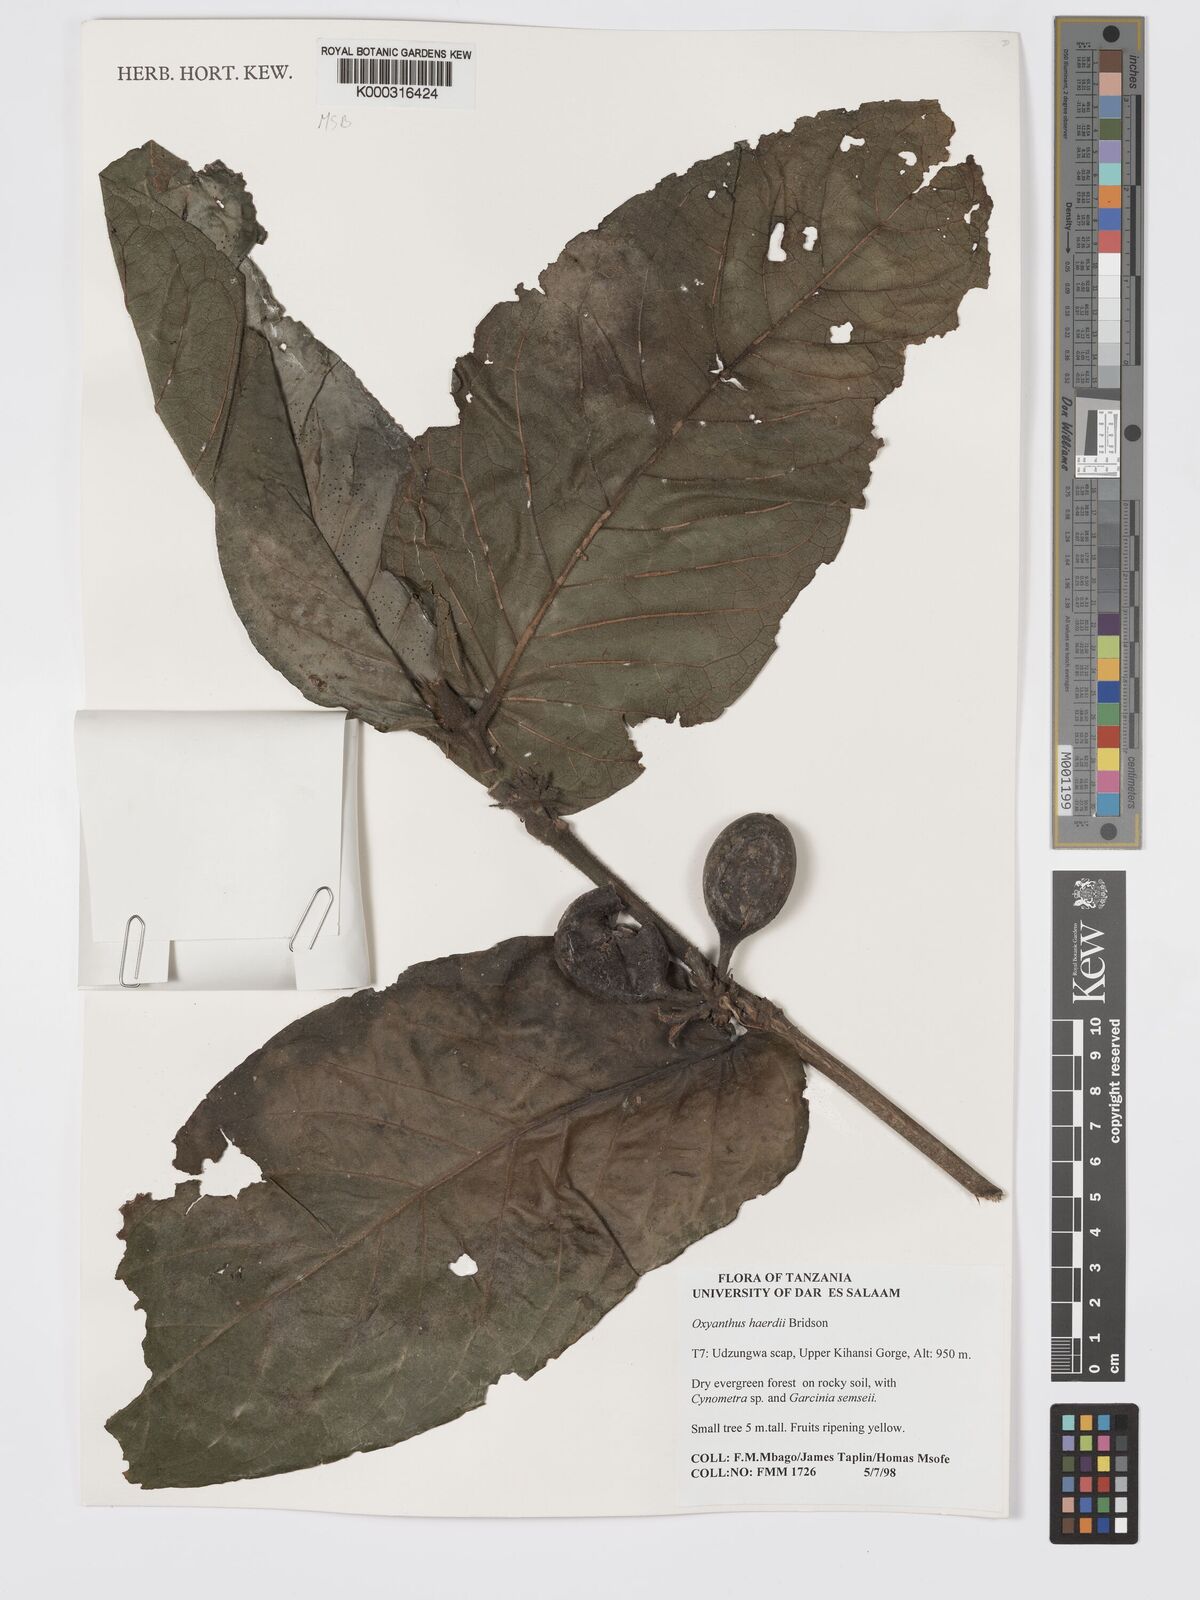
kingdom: Plantae
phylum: Tracheophyta
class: Magnoliopsida
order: Gentianales
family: Rubiaceae
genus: Oxyanthus
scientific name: Oxyanthus haerdii
